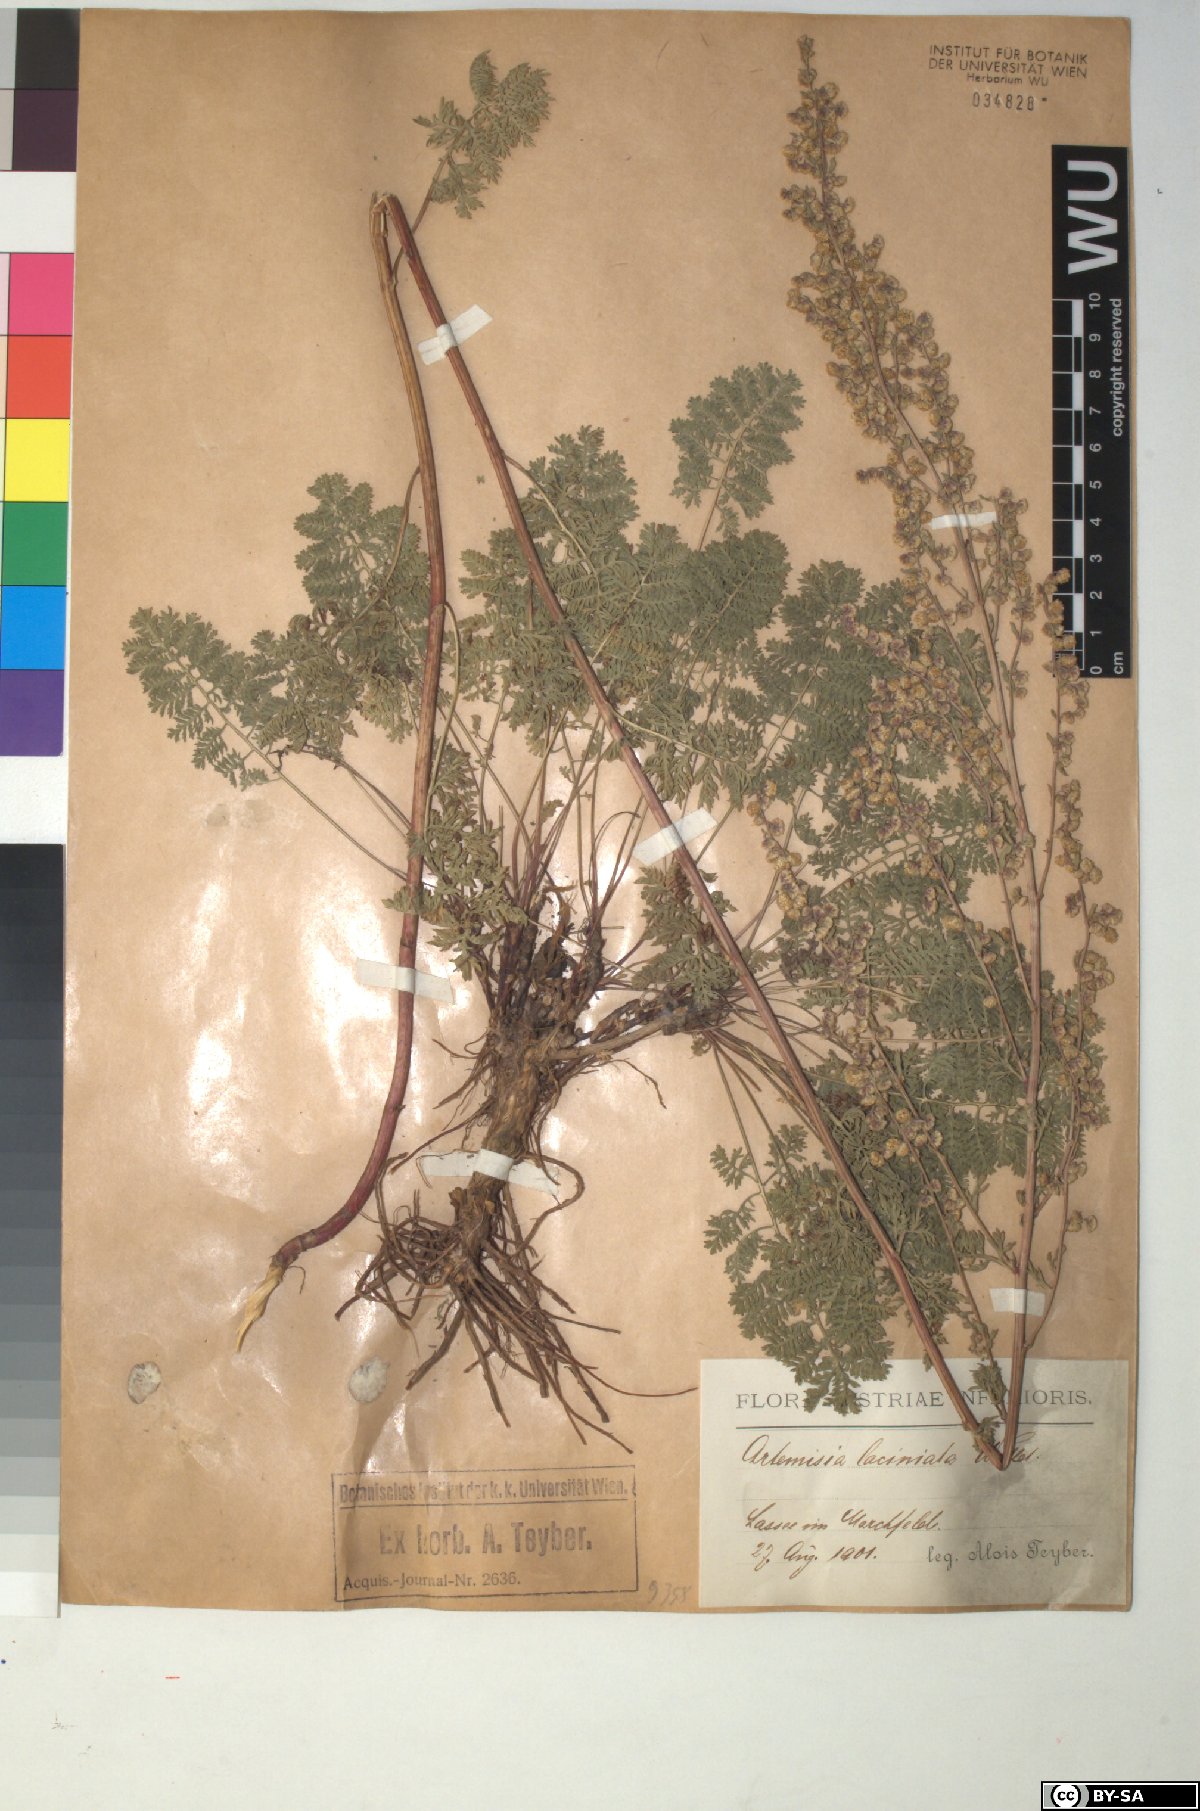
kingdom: Plantae
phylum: Tracheophyta
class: Magnoliopsida
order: Asterales
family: Asteraceae
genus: Artemisia
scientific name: Artemisia laciniata
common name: Siberian wormwood
